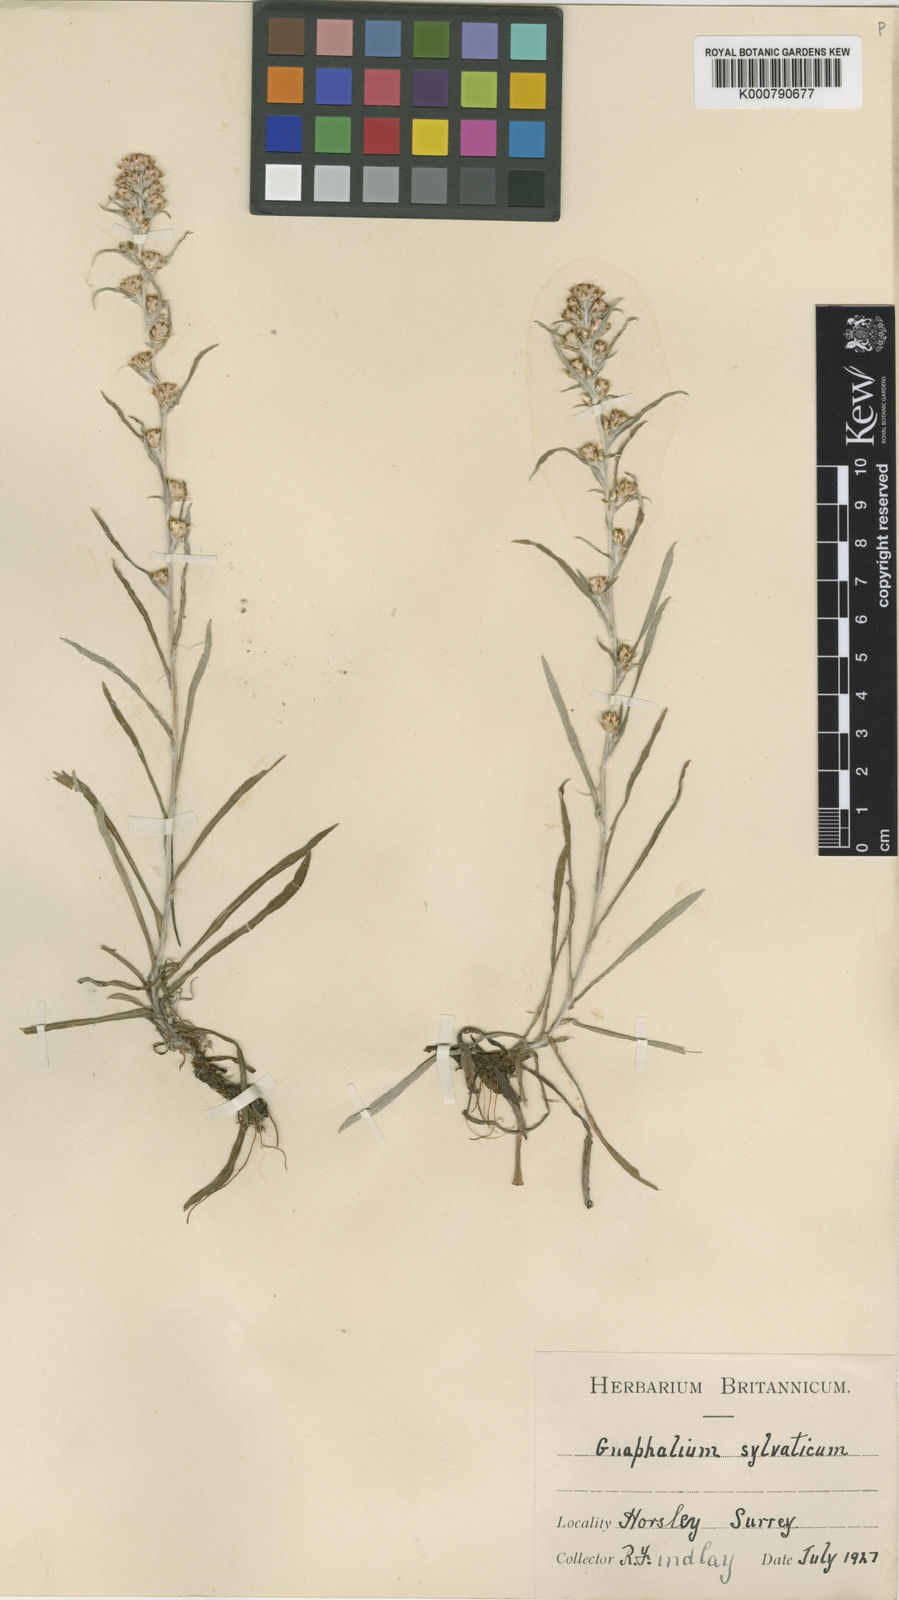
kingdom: Plantae
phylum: Tracheophyta
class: Magnoliopsida
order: Asterales
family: Asteraceae
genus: Omalotheca
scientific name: Omalotheca sylvatica
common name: Heath cudweed
